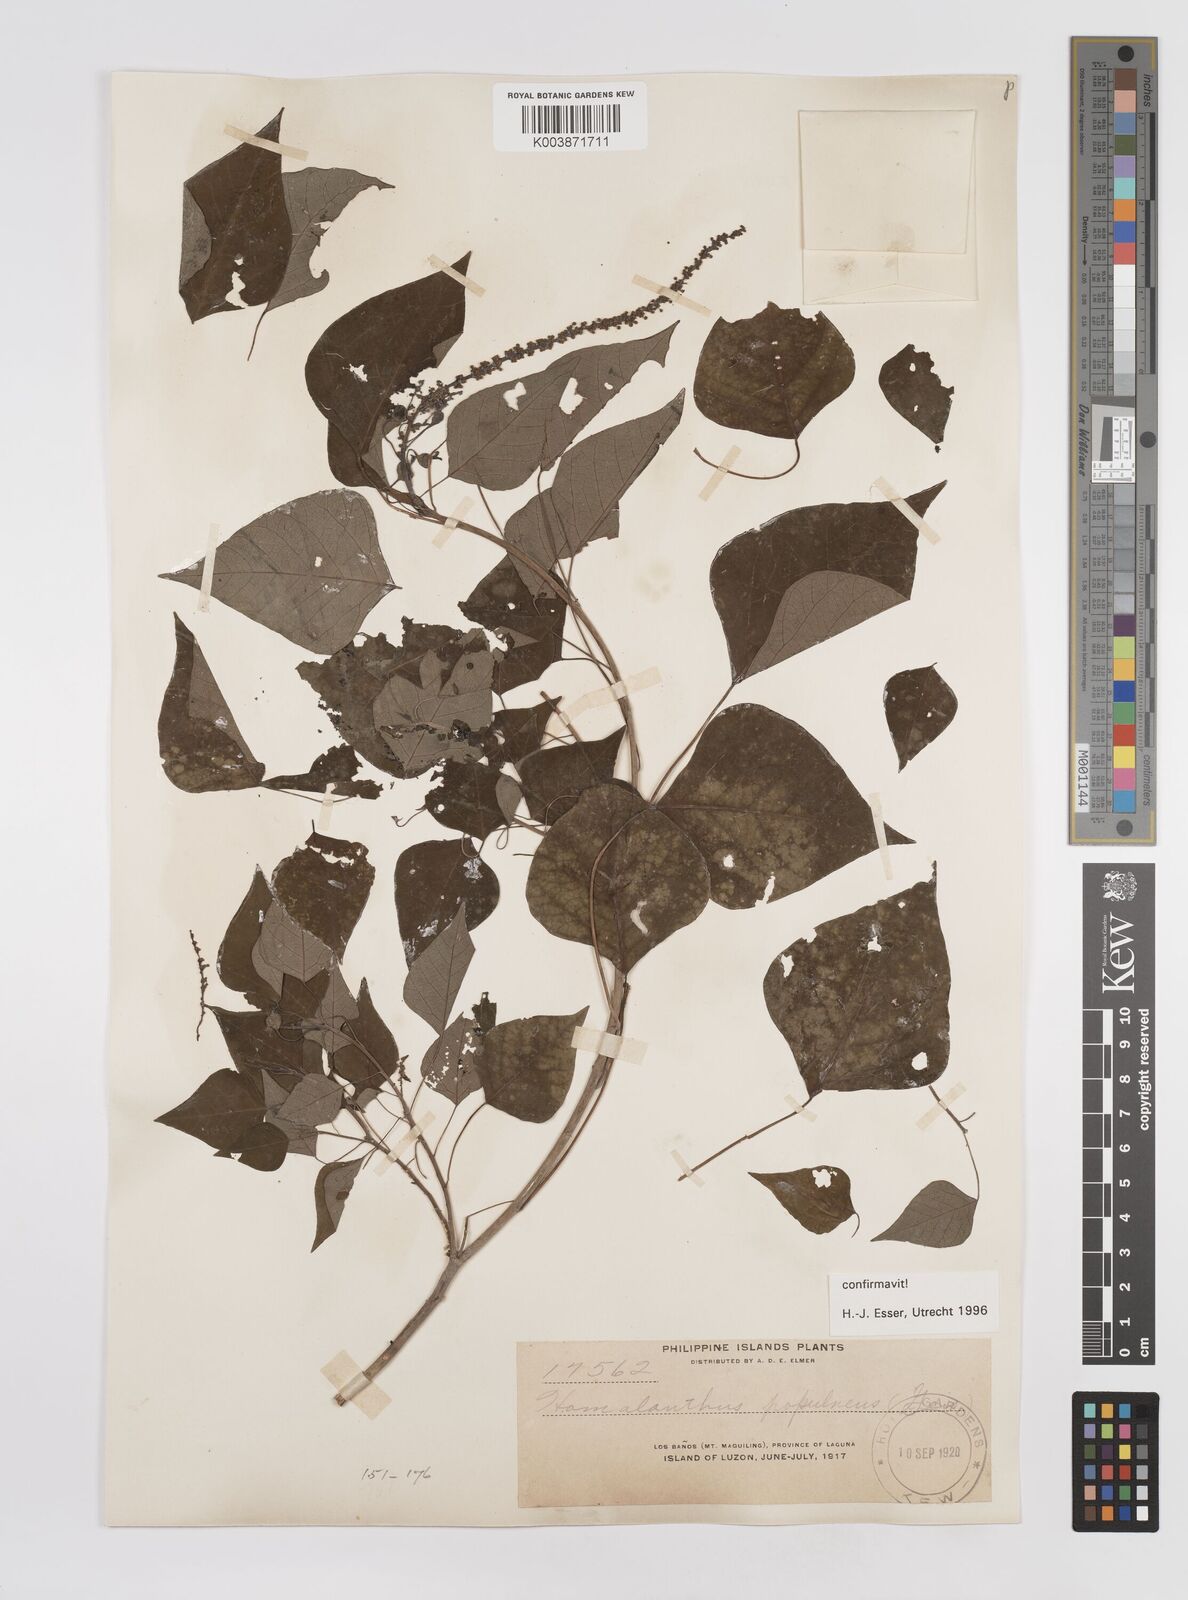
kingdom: Plantae
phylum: Tracheophyta
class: Magnoliopsida
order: Malpighiales
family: Euphorbiaceae
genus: Homalanthus
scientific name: Homalanthus populneus
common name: Spurge
